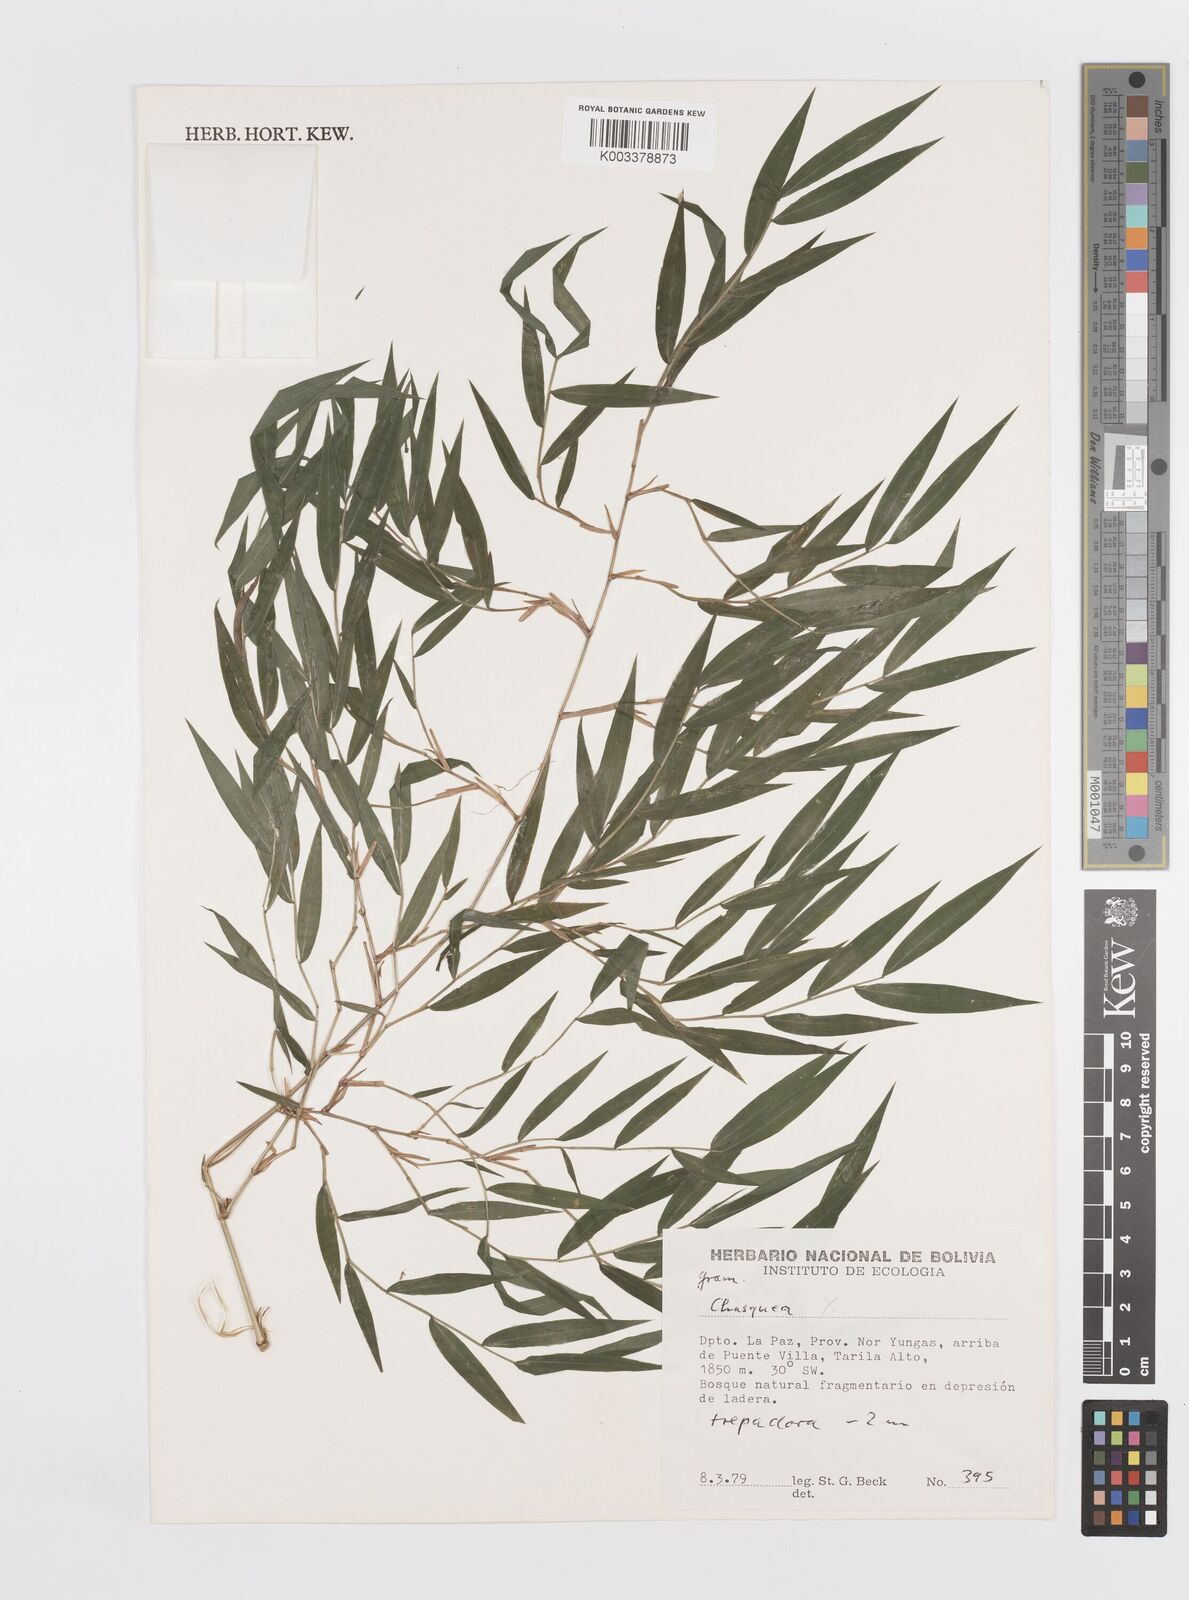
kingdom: Plantae
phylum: Tracheophyta
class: Liliopsida
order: Poales
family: Poaceae
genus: Lasiacis
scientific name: Lasiacis
